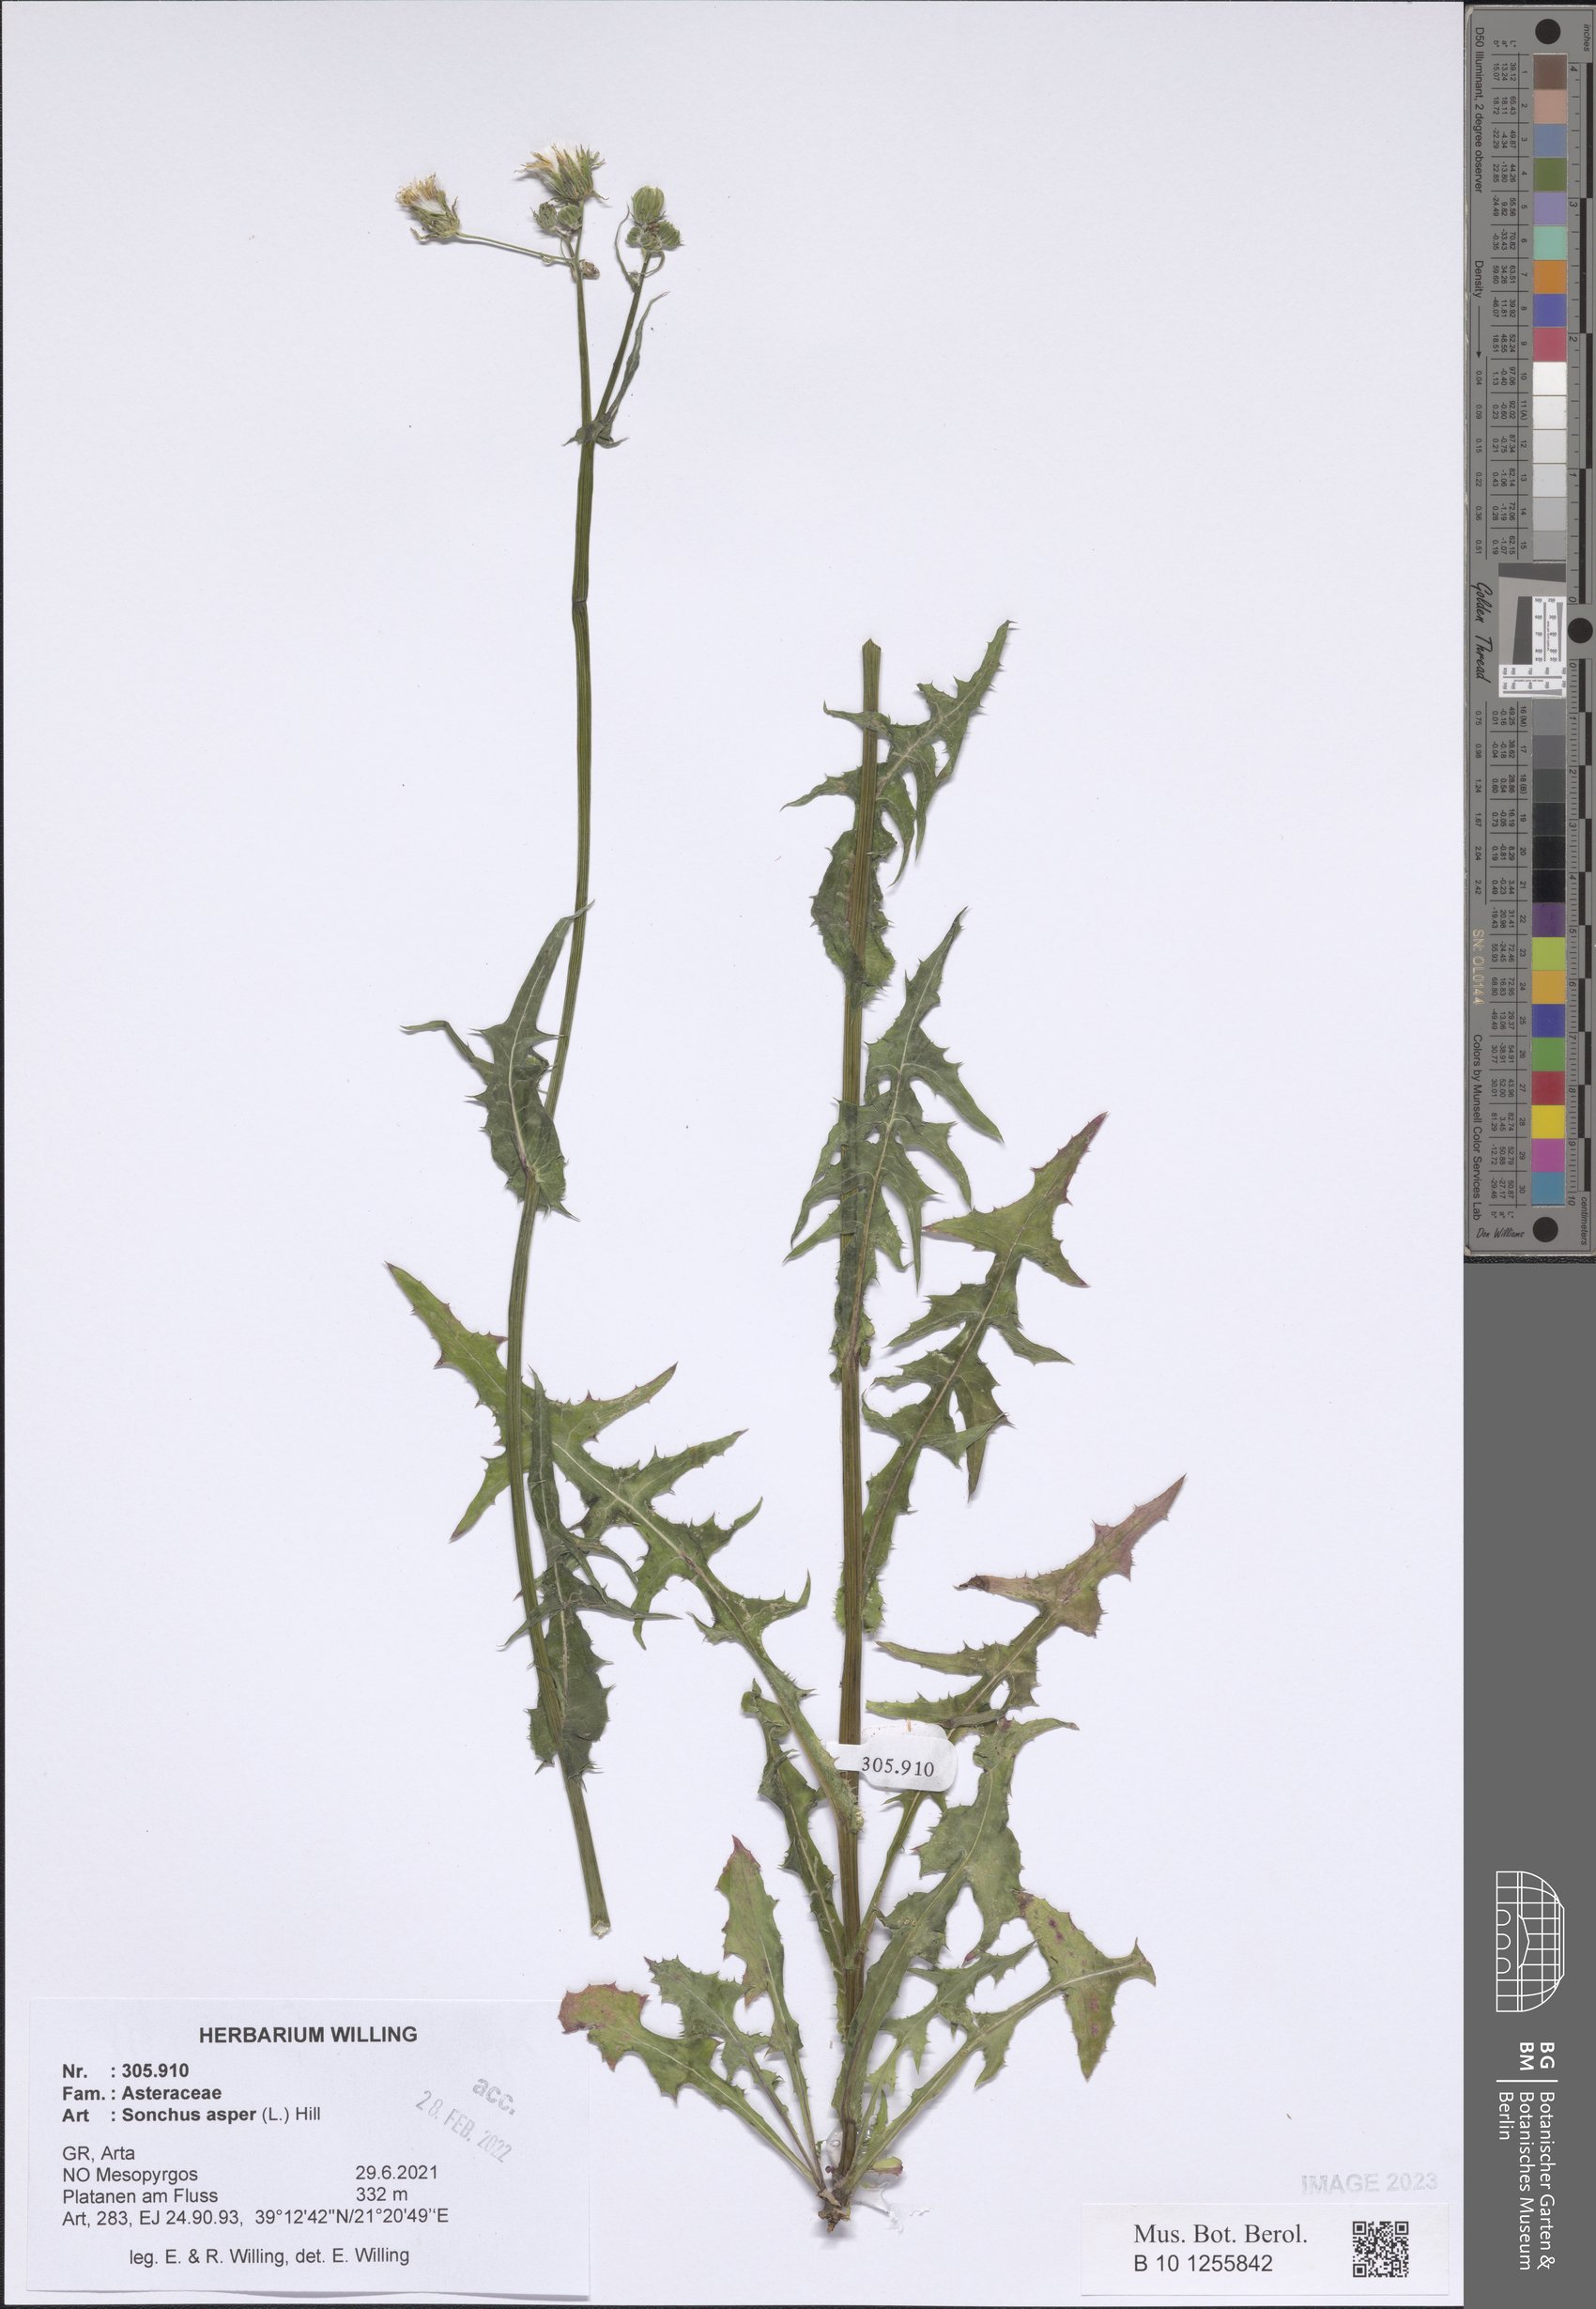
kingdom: Plantae
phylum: Tracheophyta
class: Magnoliopsida
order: Asterales
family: Asteraceae
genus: Sonchus
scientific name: Sonchus asper
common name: Prickly sow-thistle
